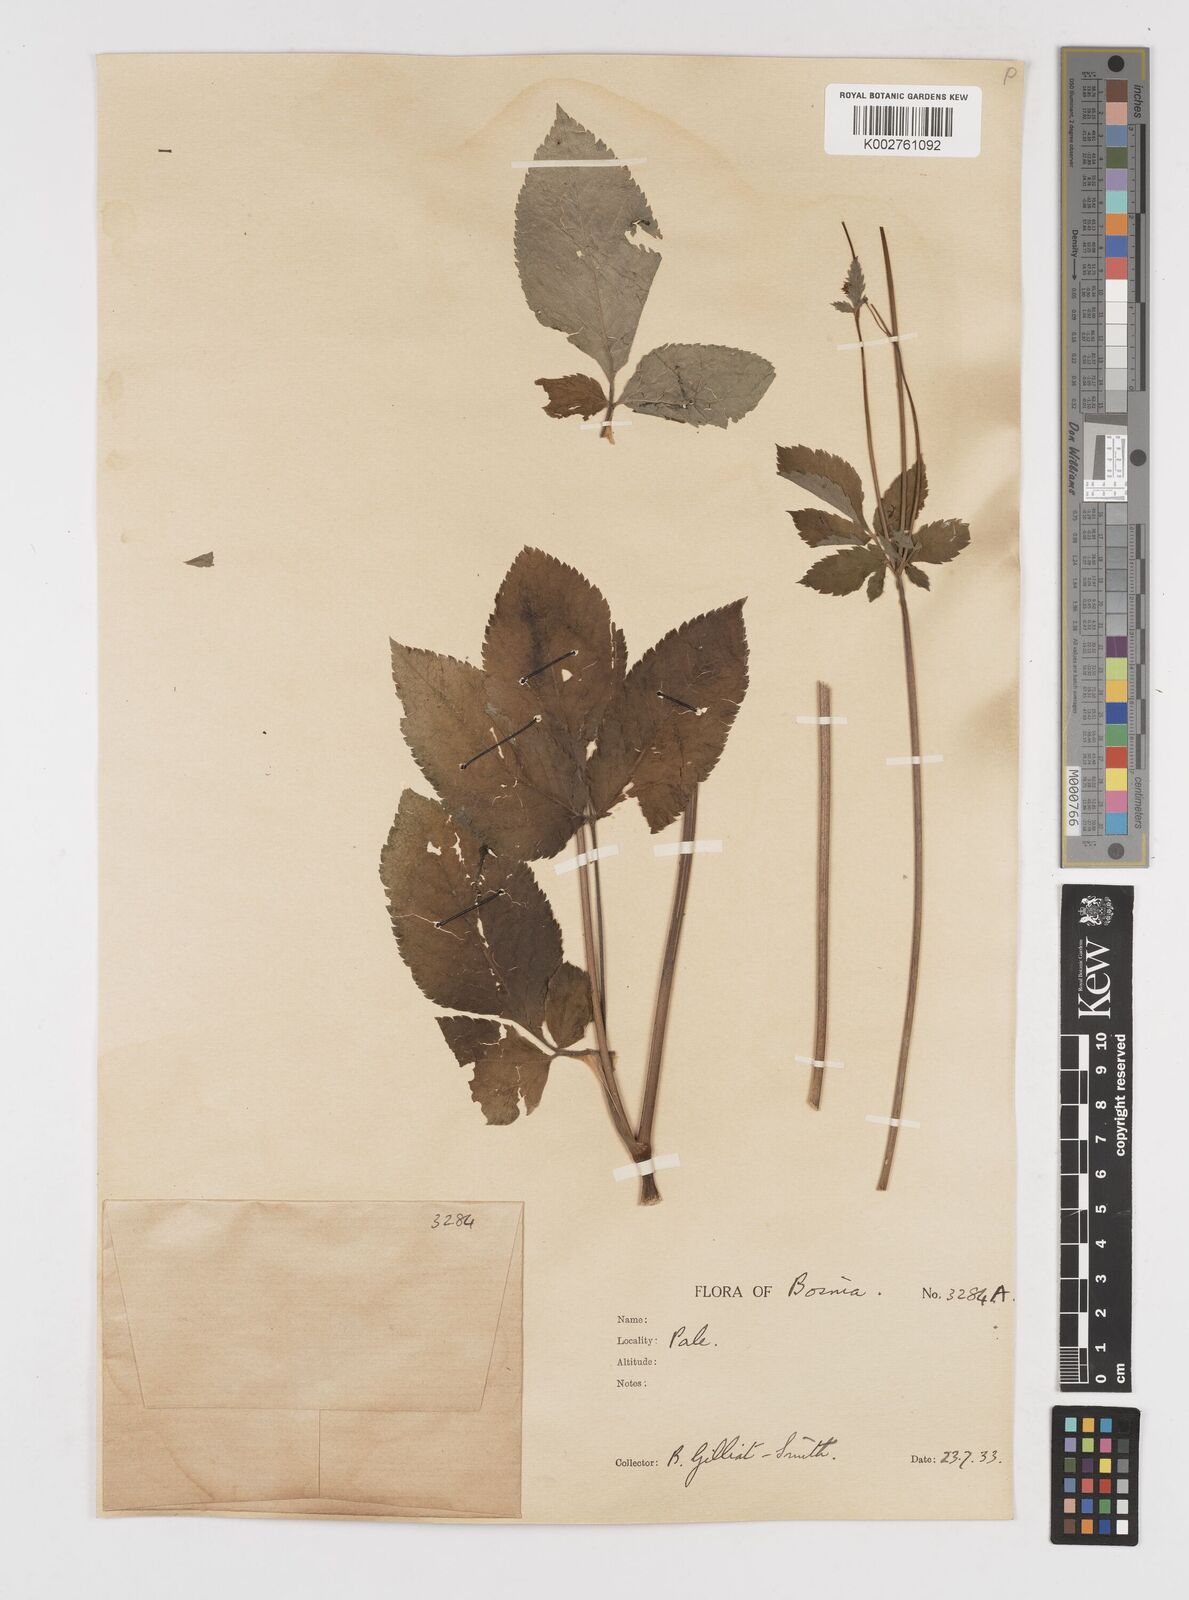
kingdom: Plantae
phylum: Tracheophyta
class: Magnoliopsida
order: Apiales
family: Apiaceae
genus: Chaerophyllum
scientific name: Chaerophyllum aromaticum
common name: Broadleaf chervil
